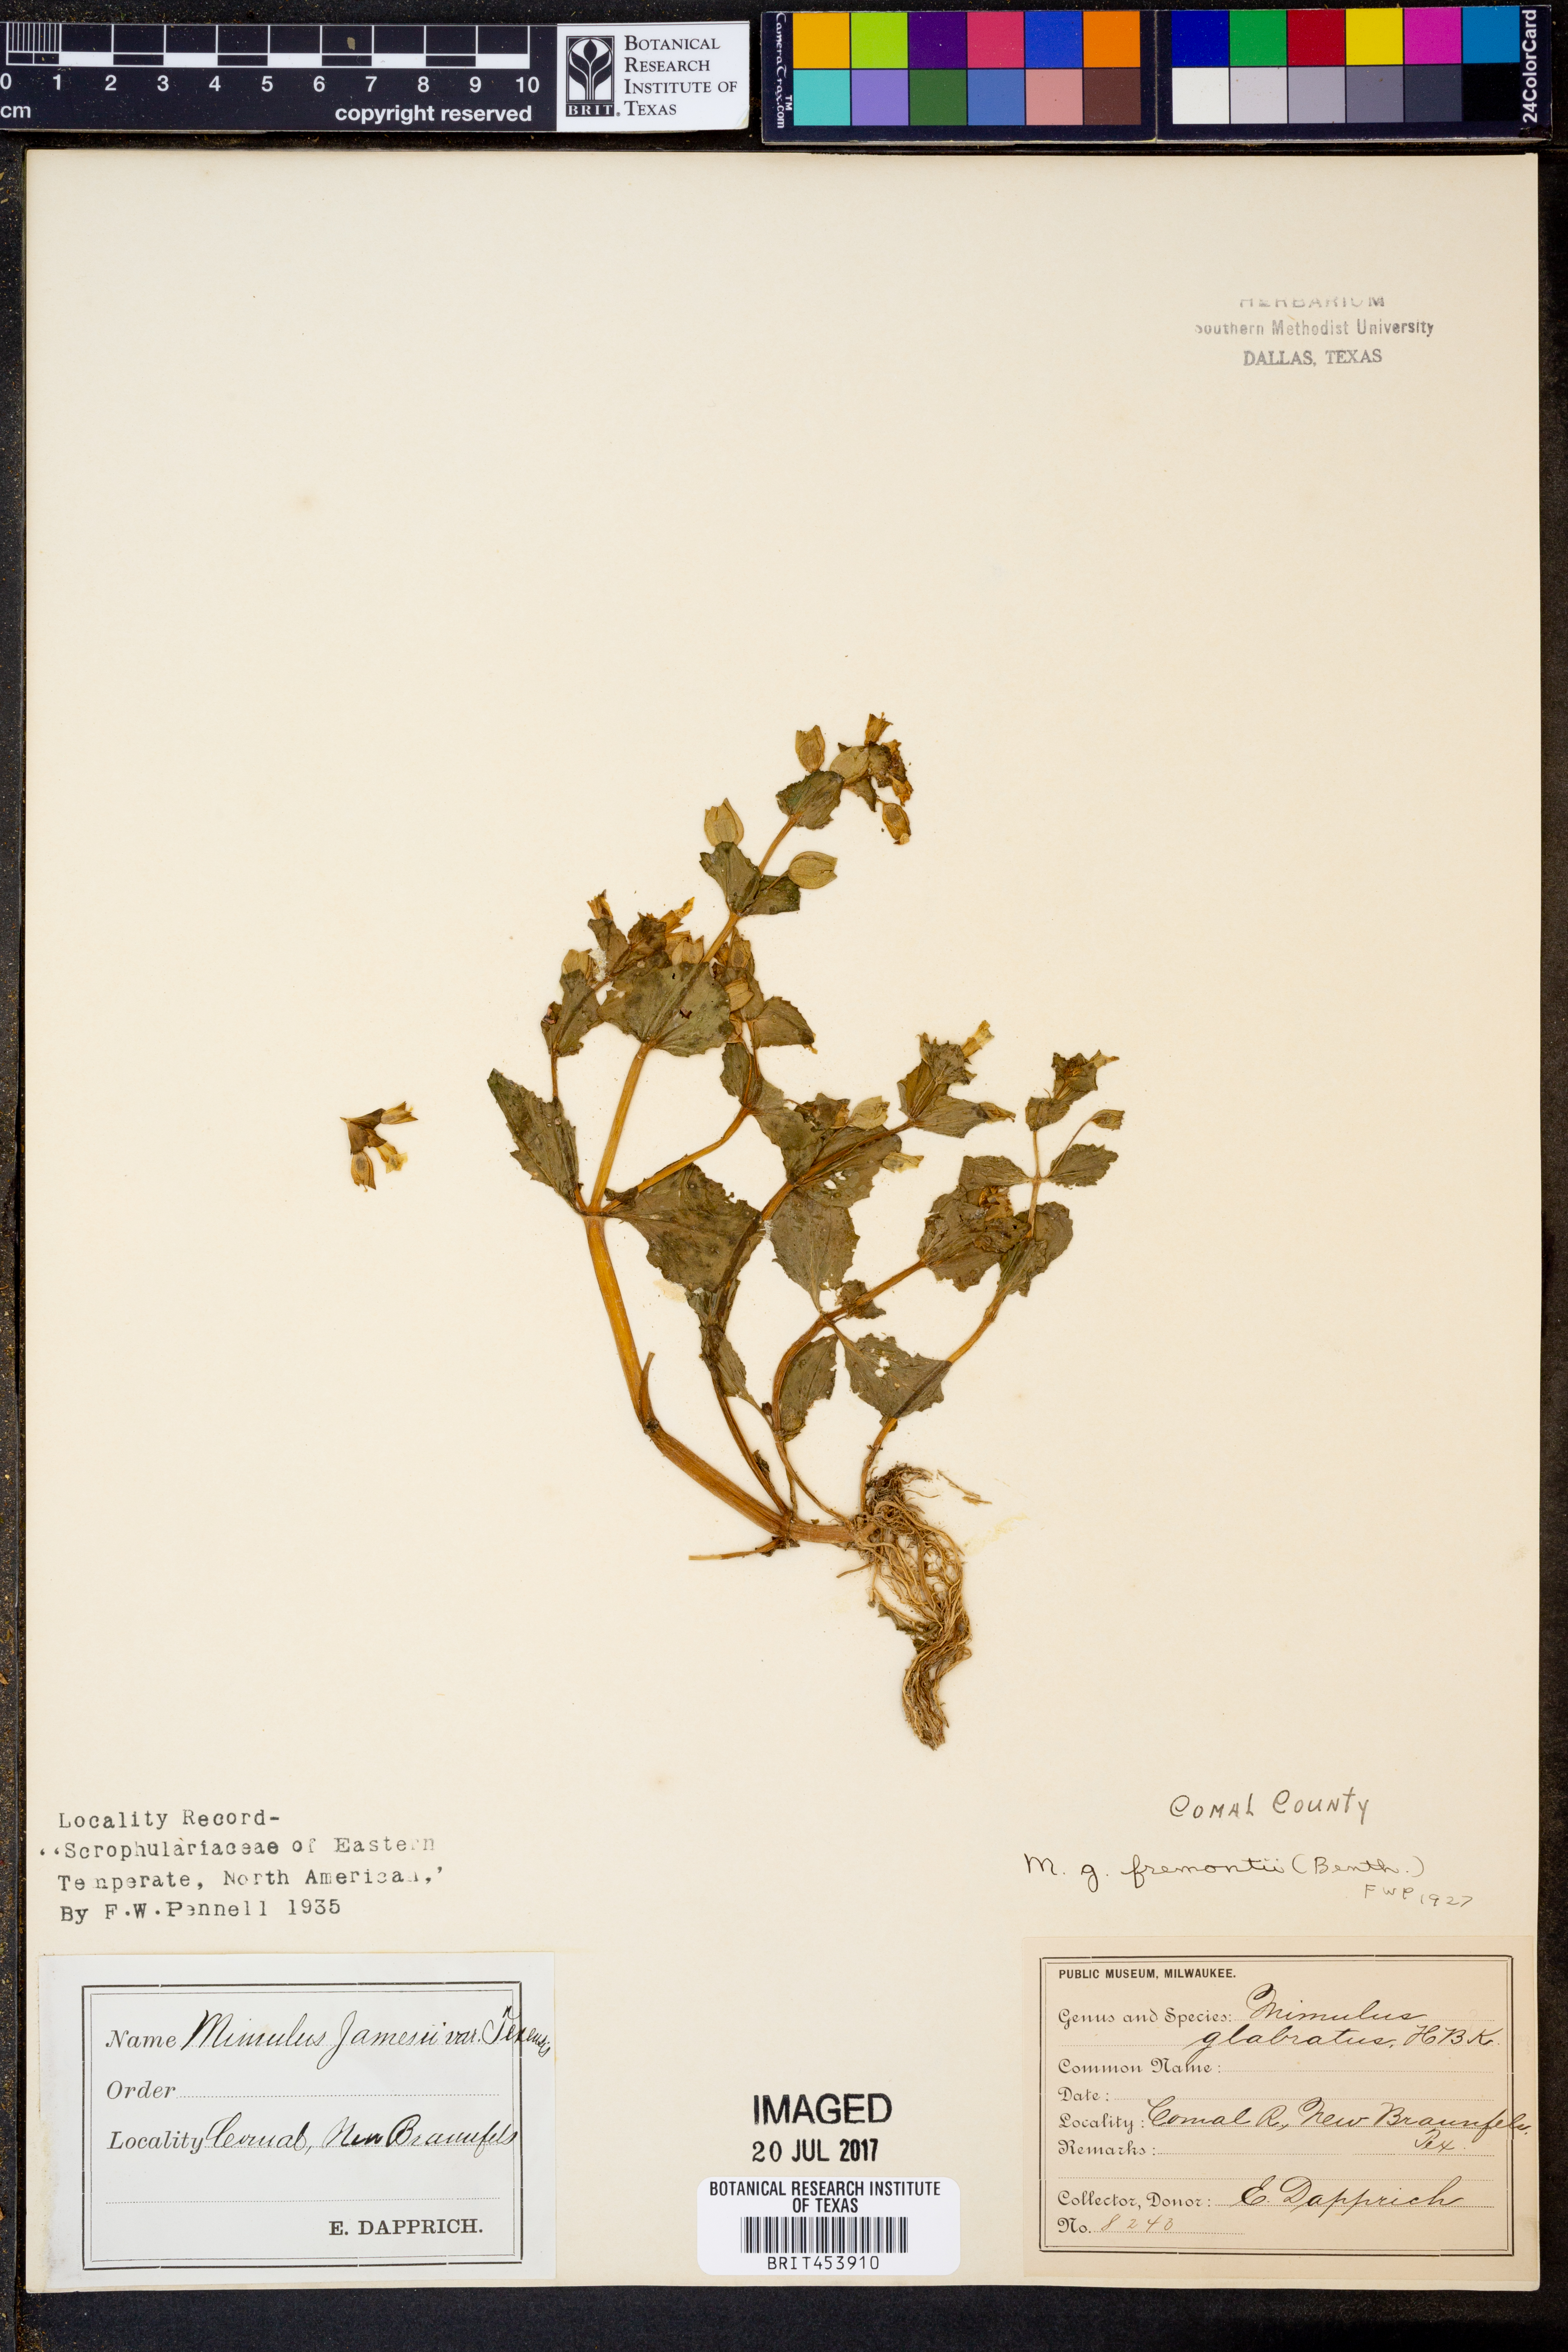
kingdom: Plantae
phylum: Tracheophyta
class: Magnoliopsida
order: Lamiales
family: Phrymaceae
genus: Erythranthe
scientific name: Erythranthe geyeri
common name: Geyer's monkeyflower
